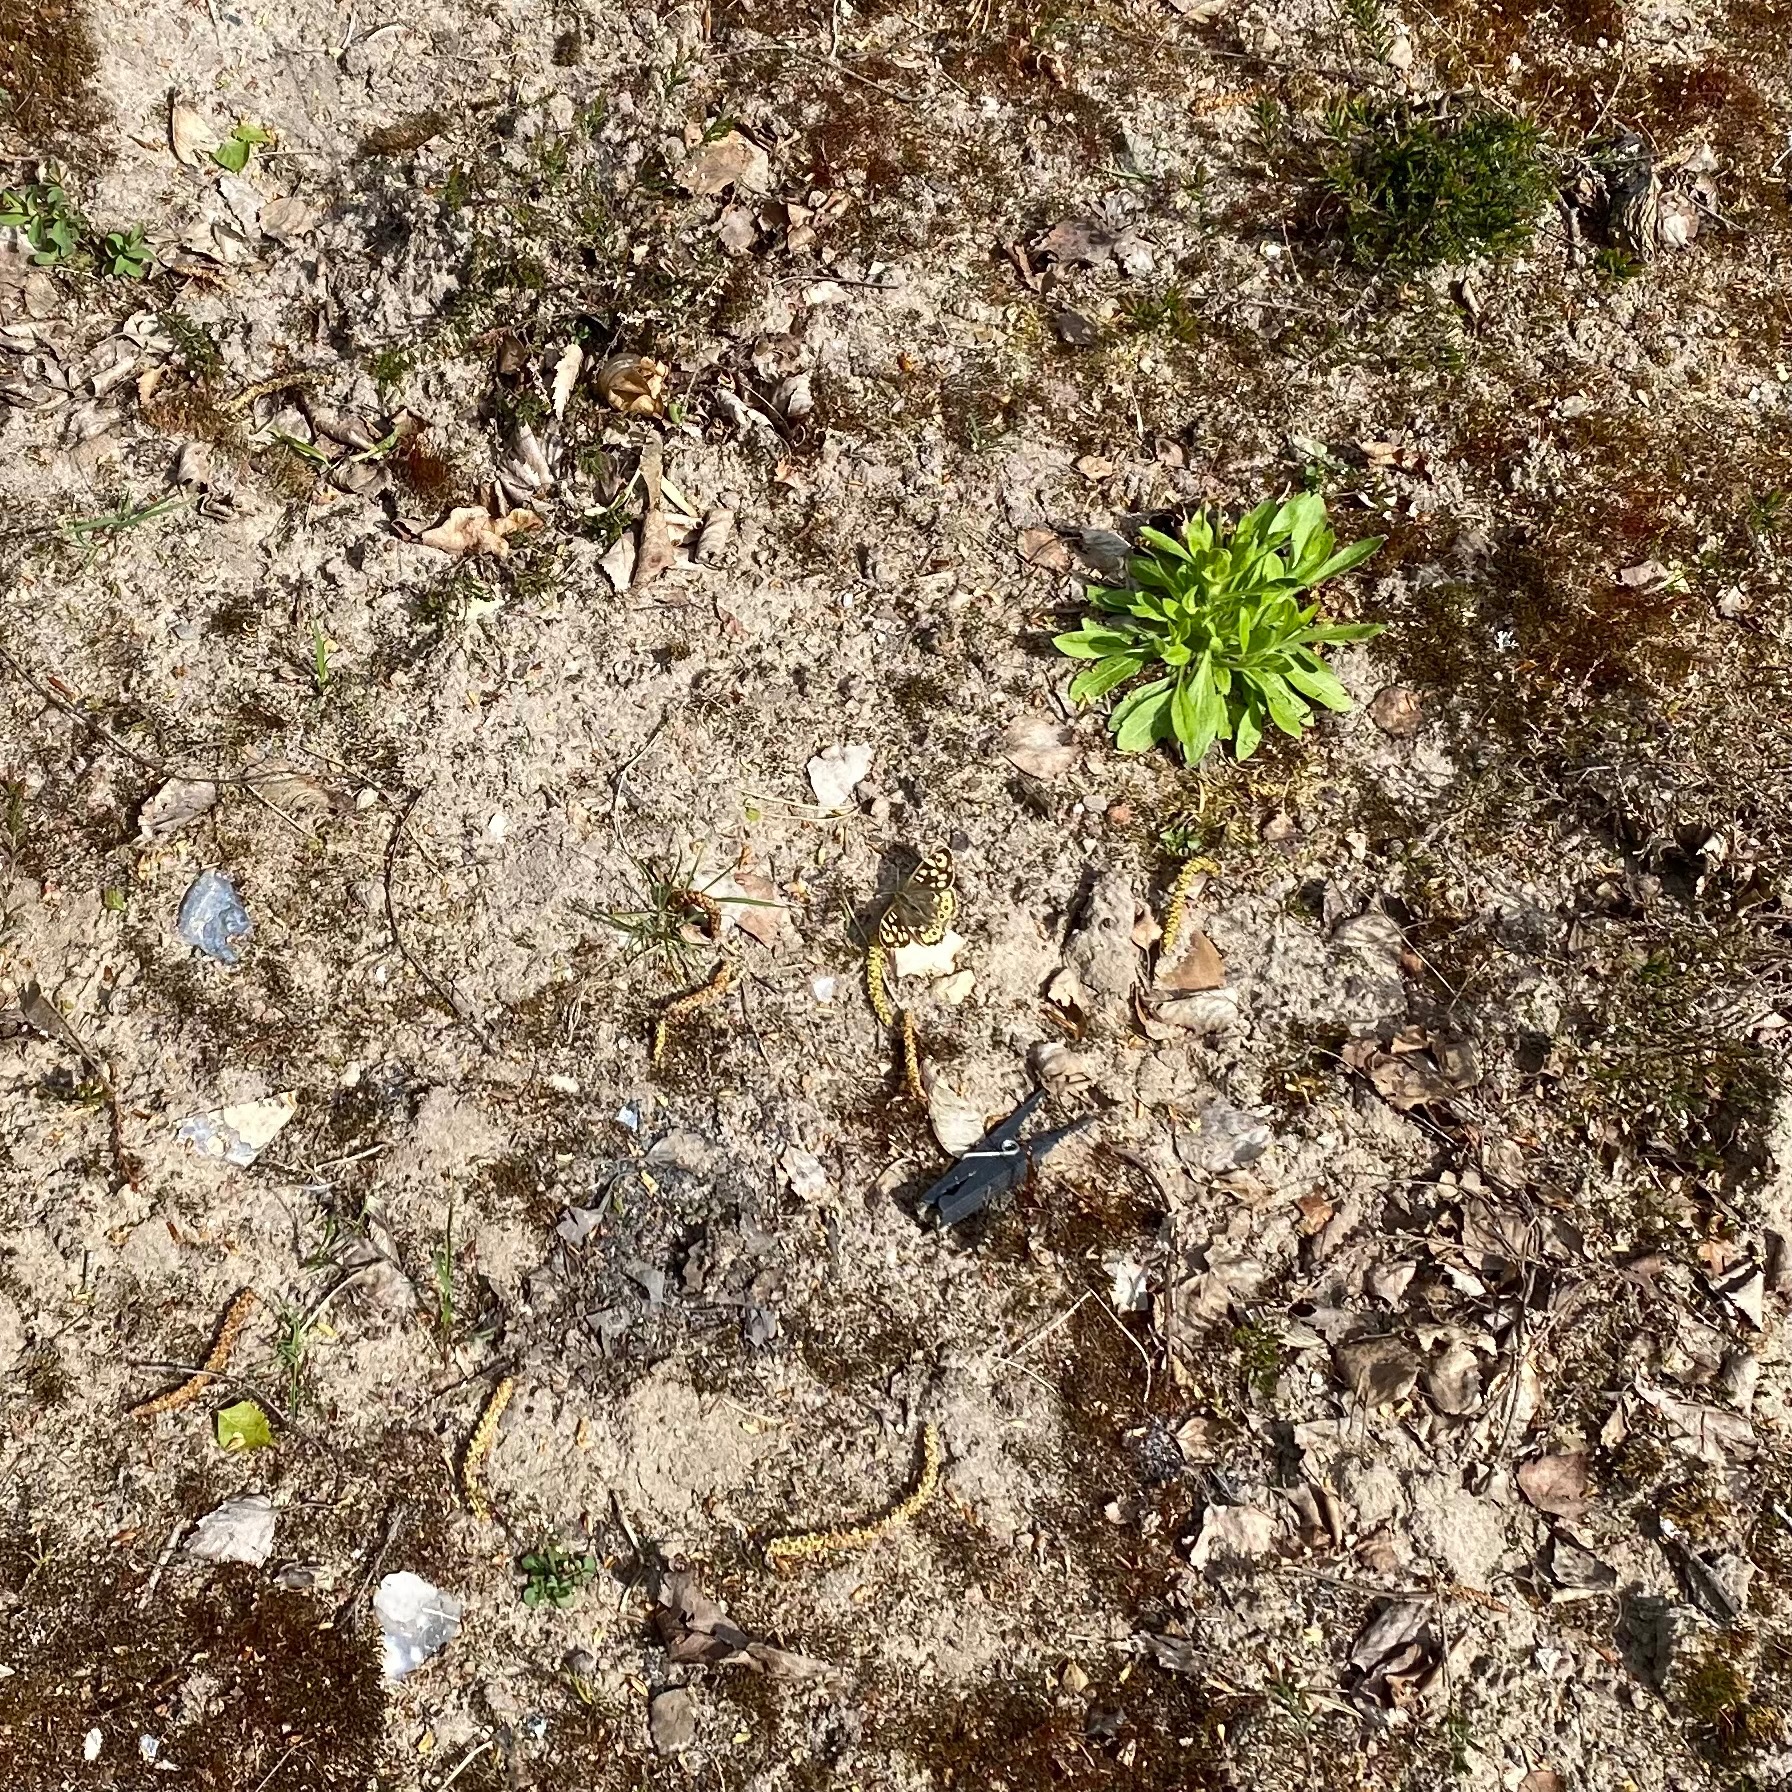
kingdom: Animalia
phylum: Arthropoda
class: Insecta
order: Lepidoptera
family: Nymphalidae
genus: Pararge
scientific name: Pararge aegeria
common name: Skovrandøje
